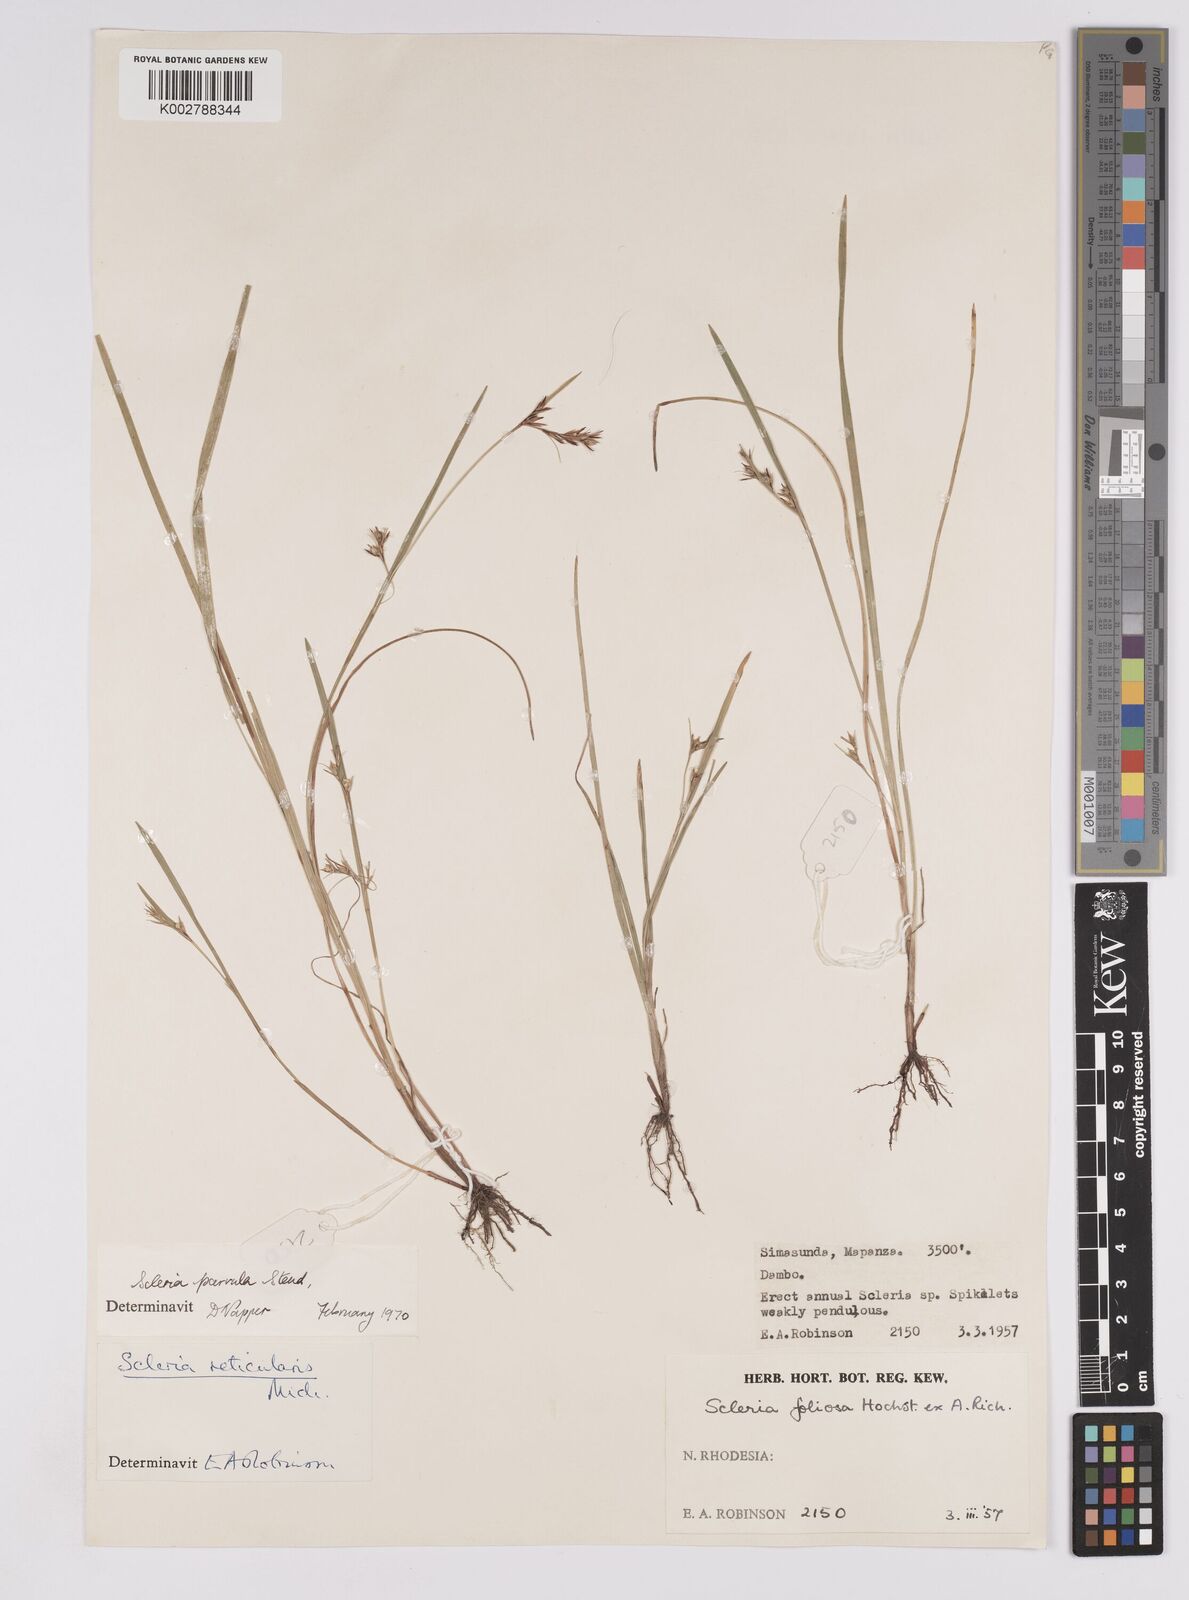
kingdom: Plantae
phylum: Tracheophyta
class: Liliopsida
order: Poales
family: Cyperaceae
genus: Scleria
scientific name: Scleria parvula
